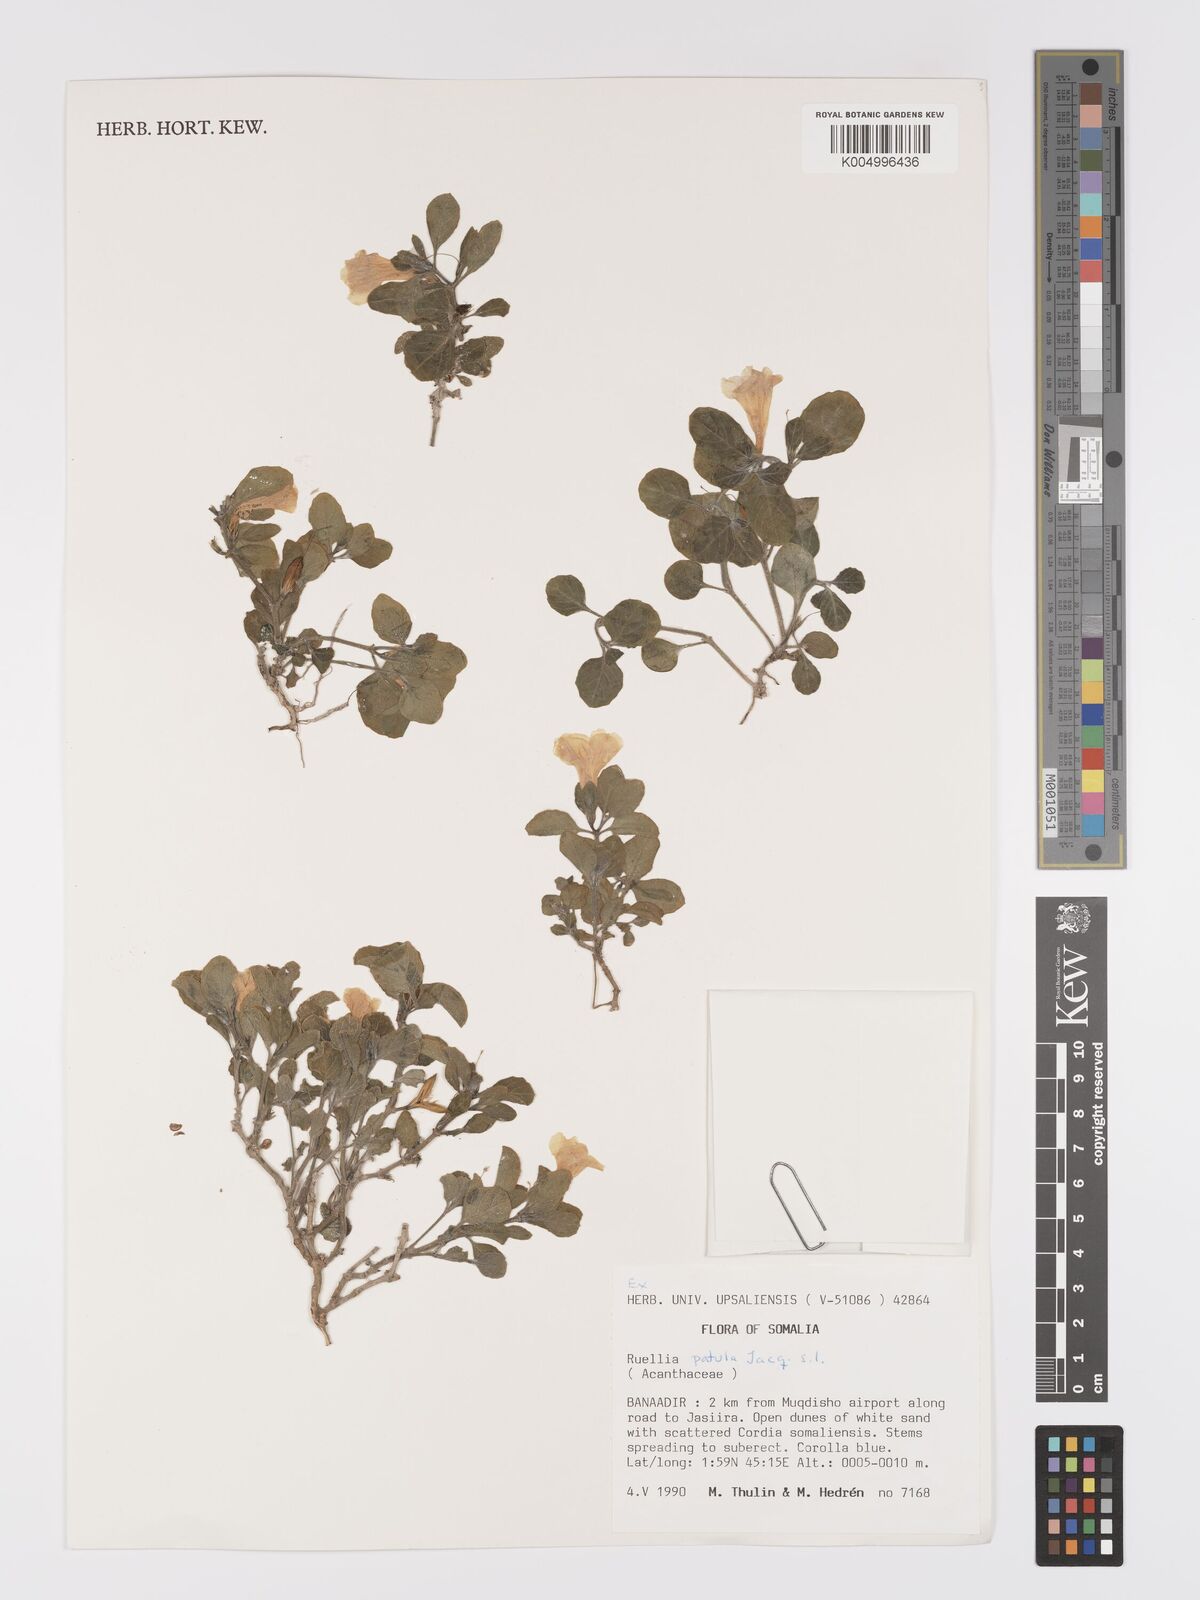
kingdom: Plantae
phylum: Tracheophyta
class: Magnoliopsida
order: Lamiales
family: Acanthaceae
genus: Ruellia
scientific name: Ruellia patula
